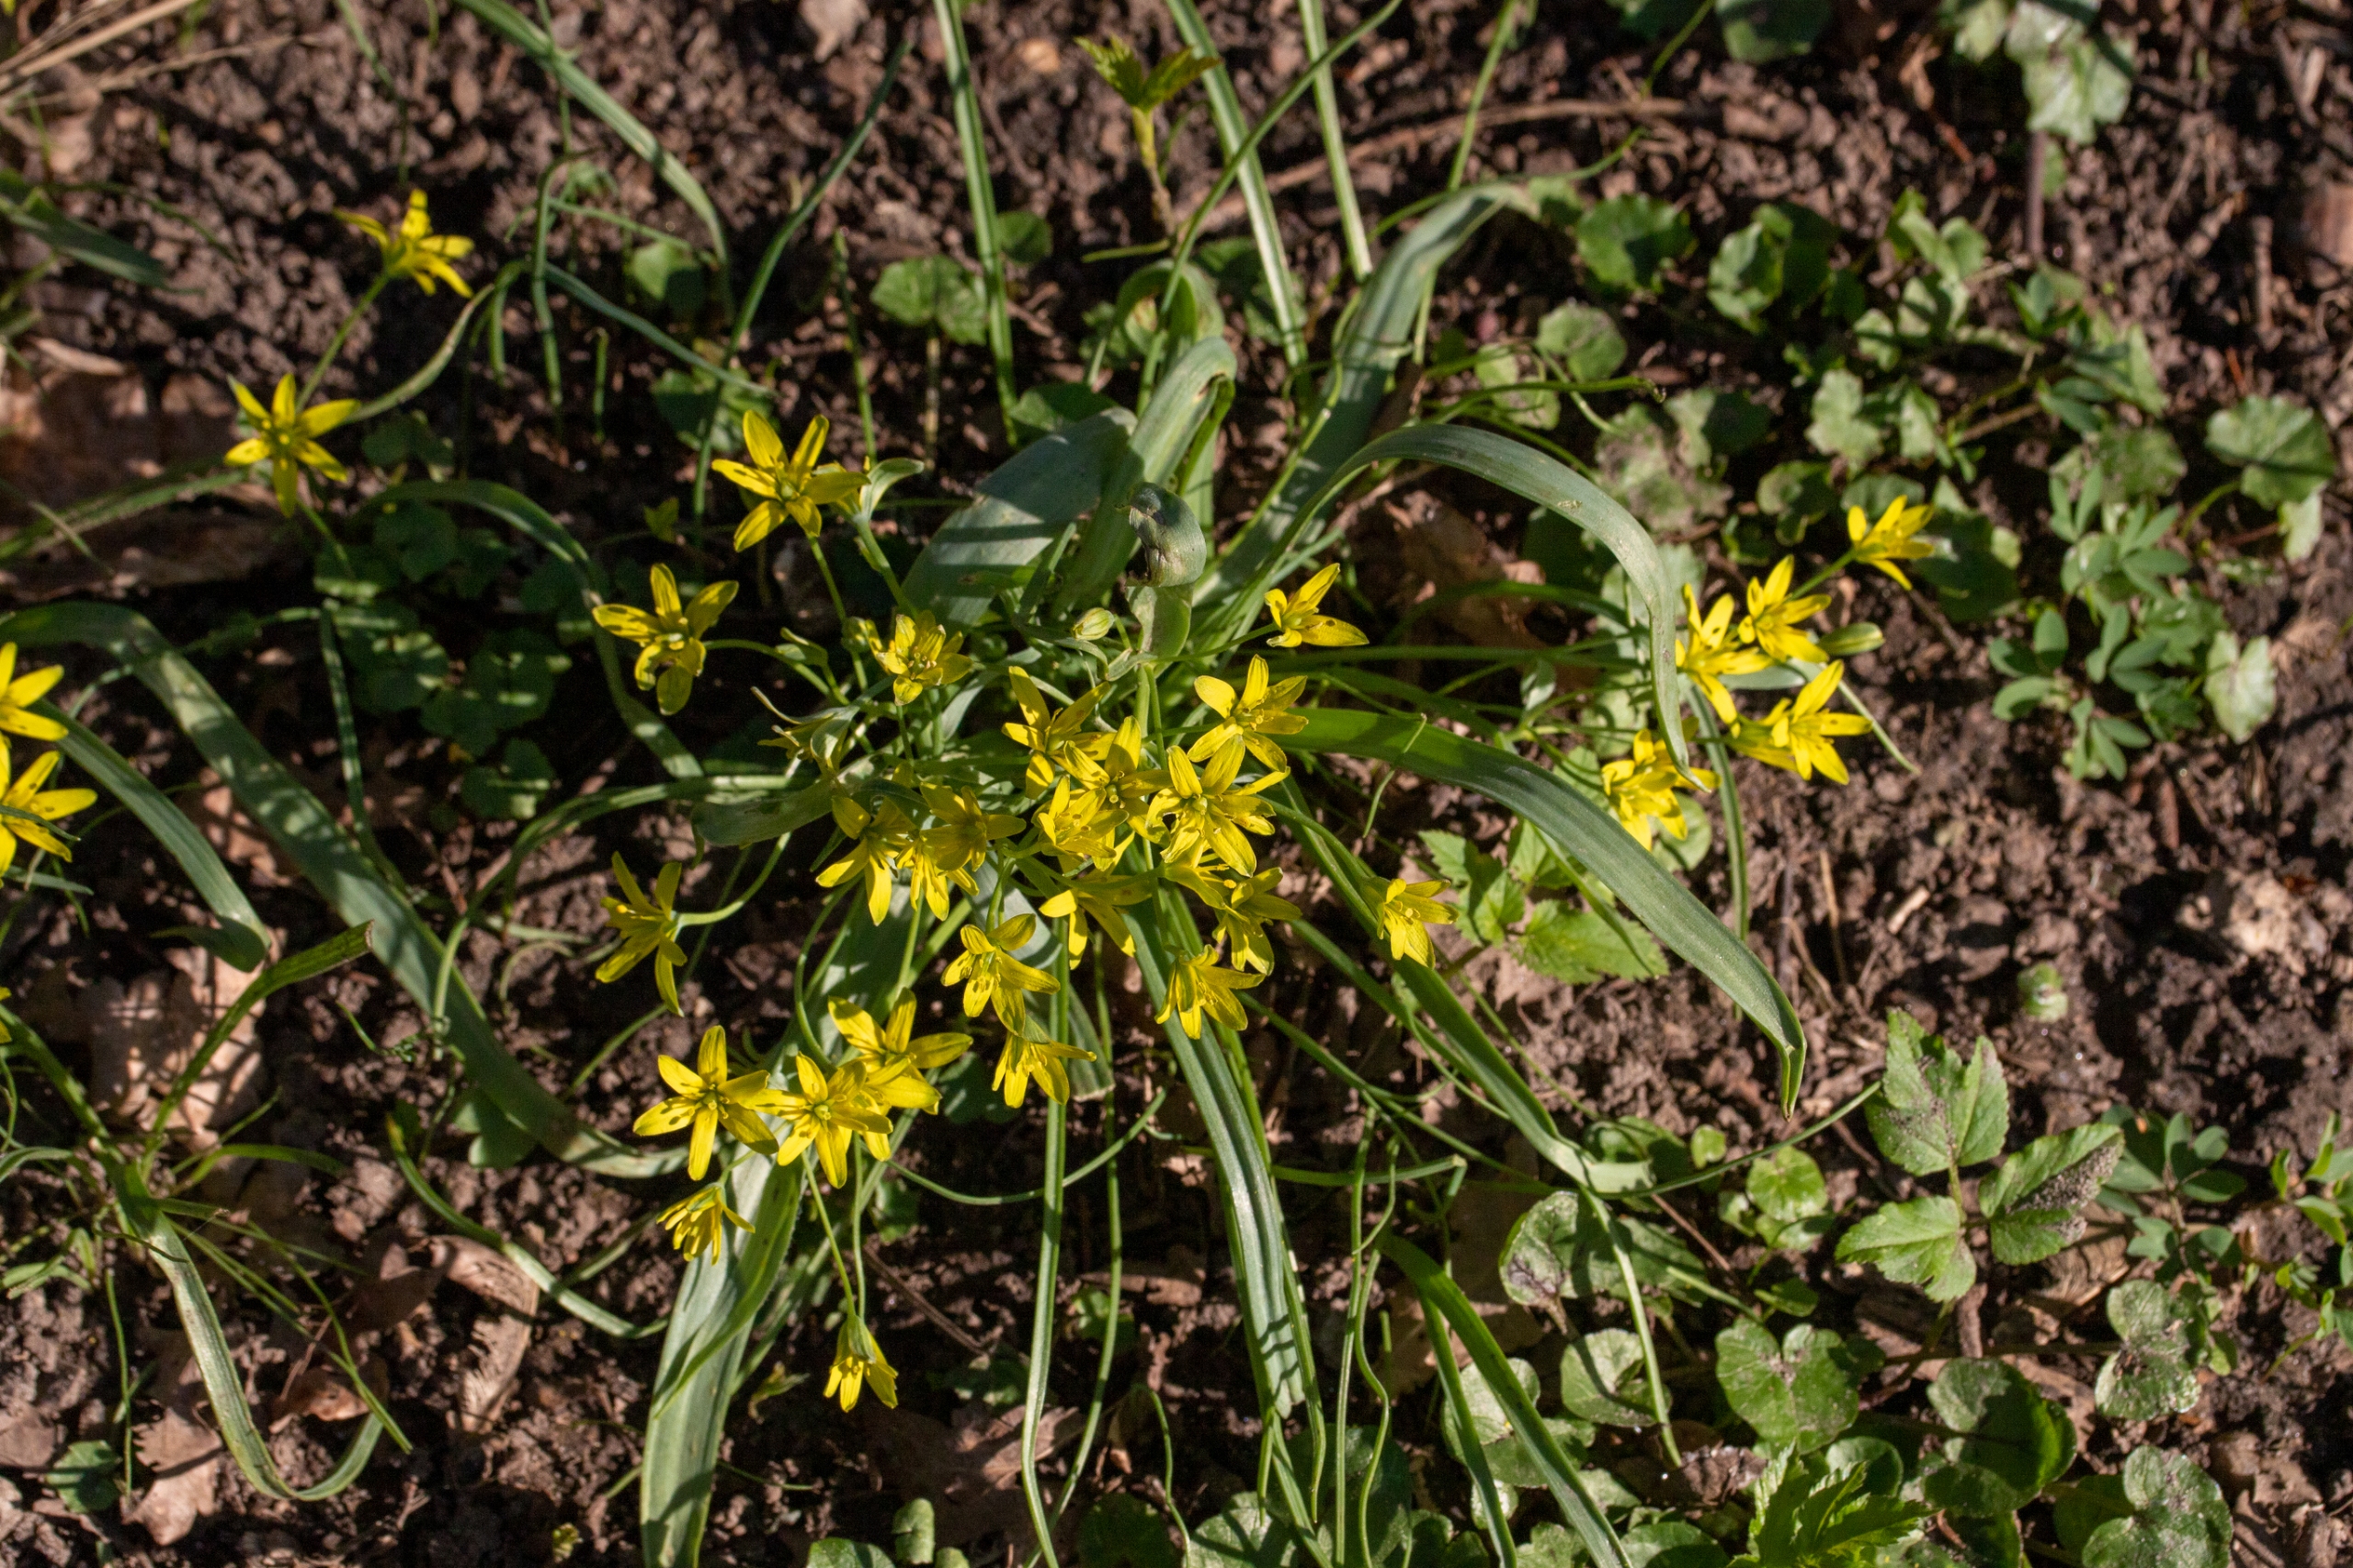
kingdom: Plantae
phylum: Tracheophyta
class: Liliopsida
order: Liliales
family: Liliaceae
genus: Gagea
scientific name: Gagea lutea
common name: Almindelig guldstjerne
